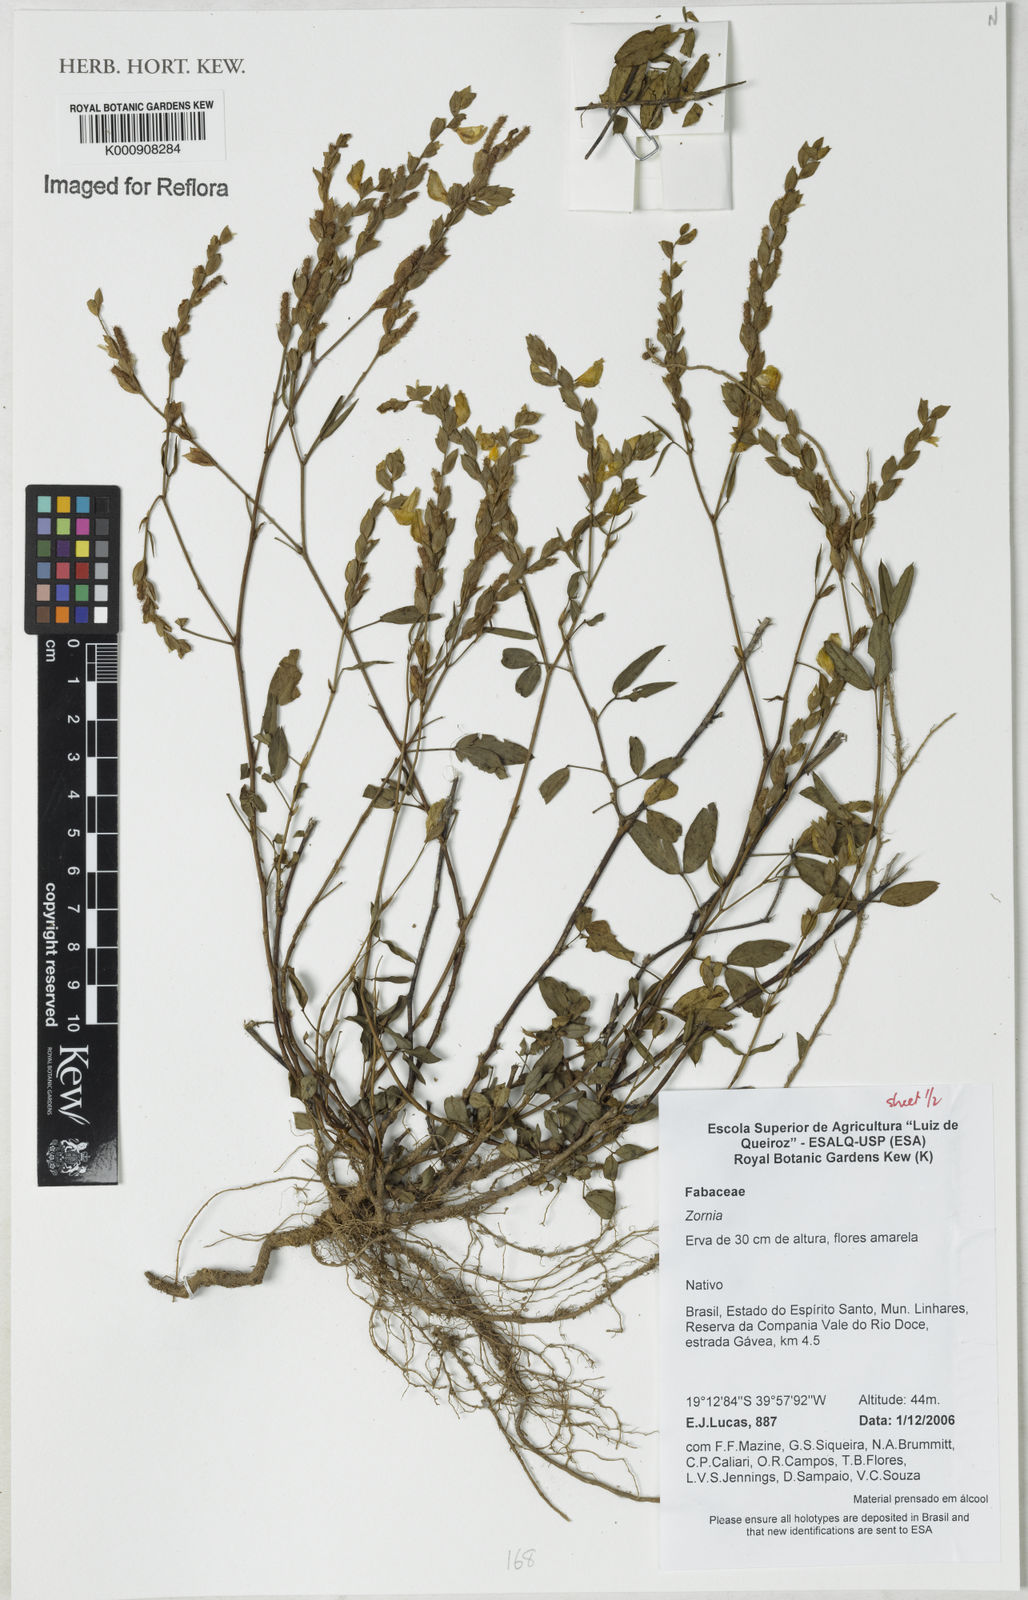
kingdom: Plantae
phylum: Tracheophyta
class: Magnoliopsida
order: Fabales
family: Fabaceae
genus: Zornia
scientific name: Zornia
